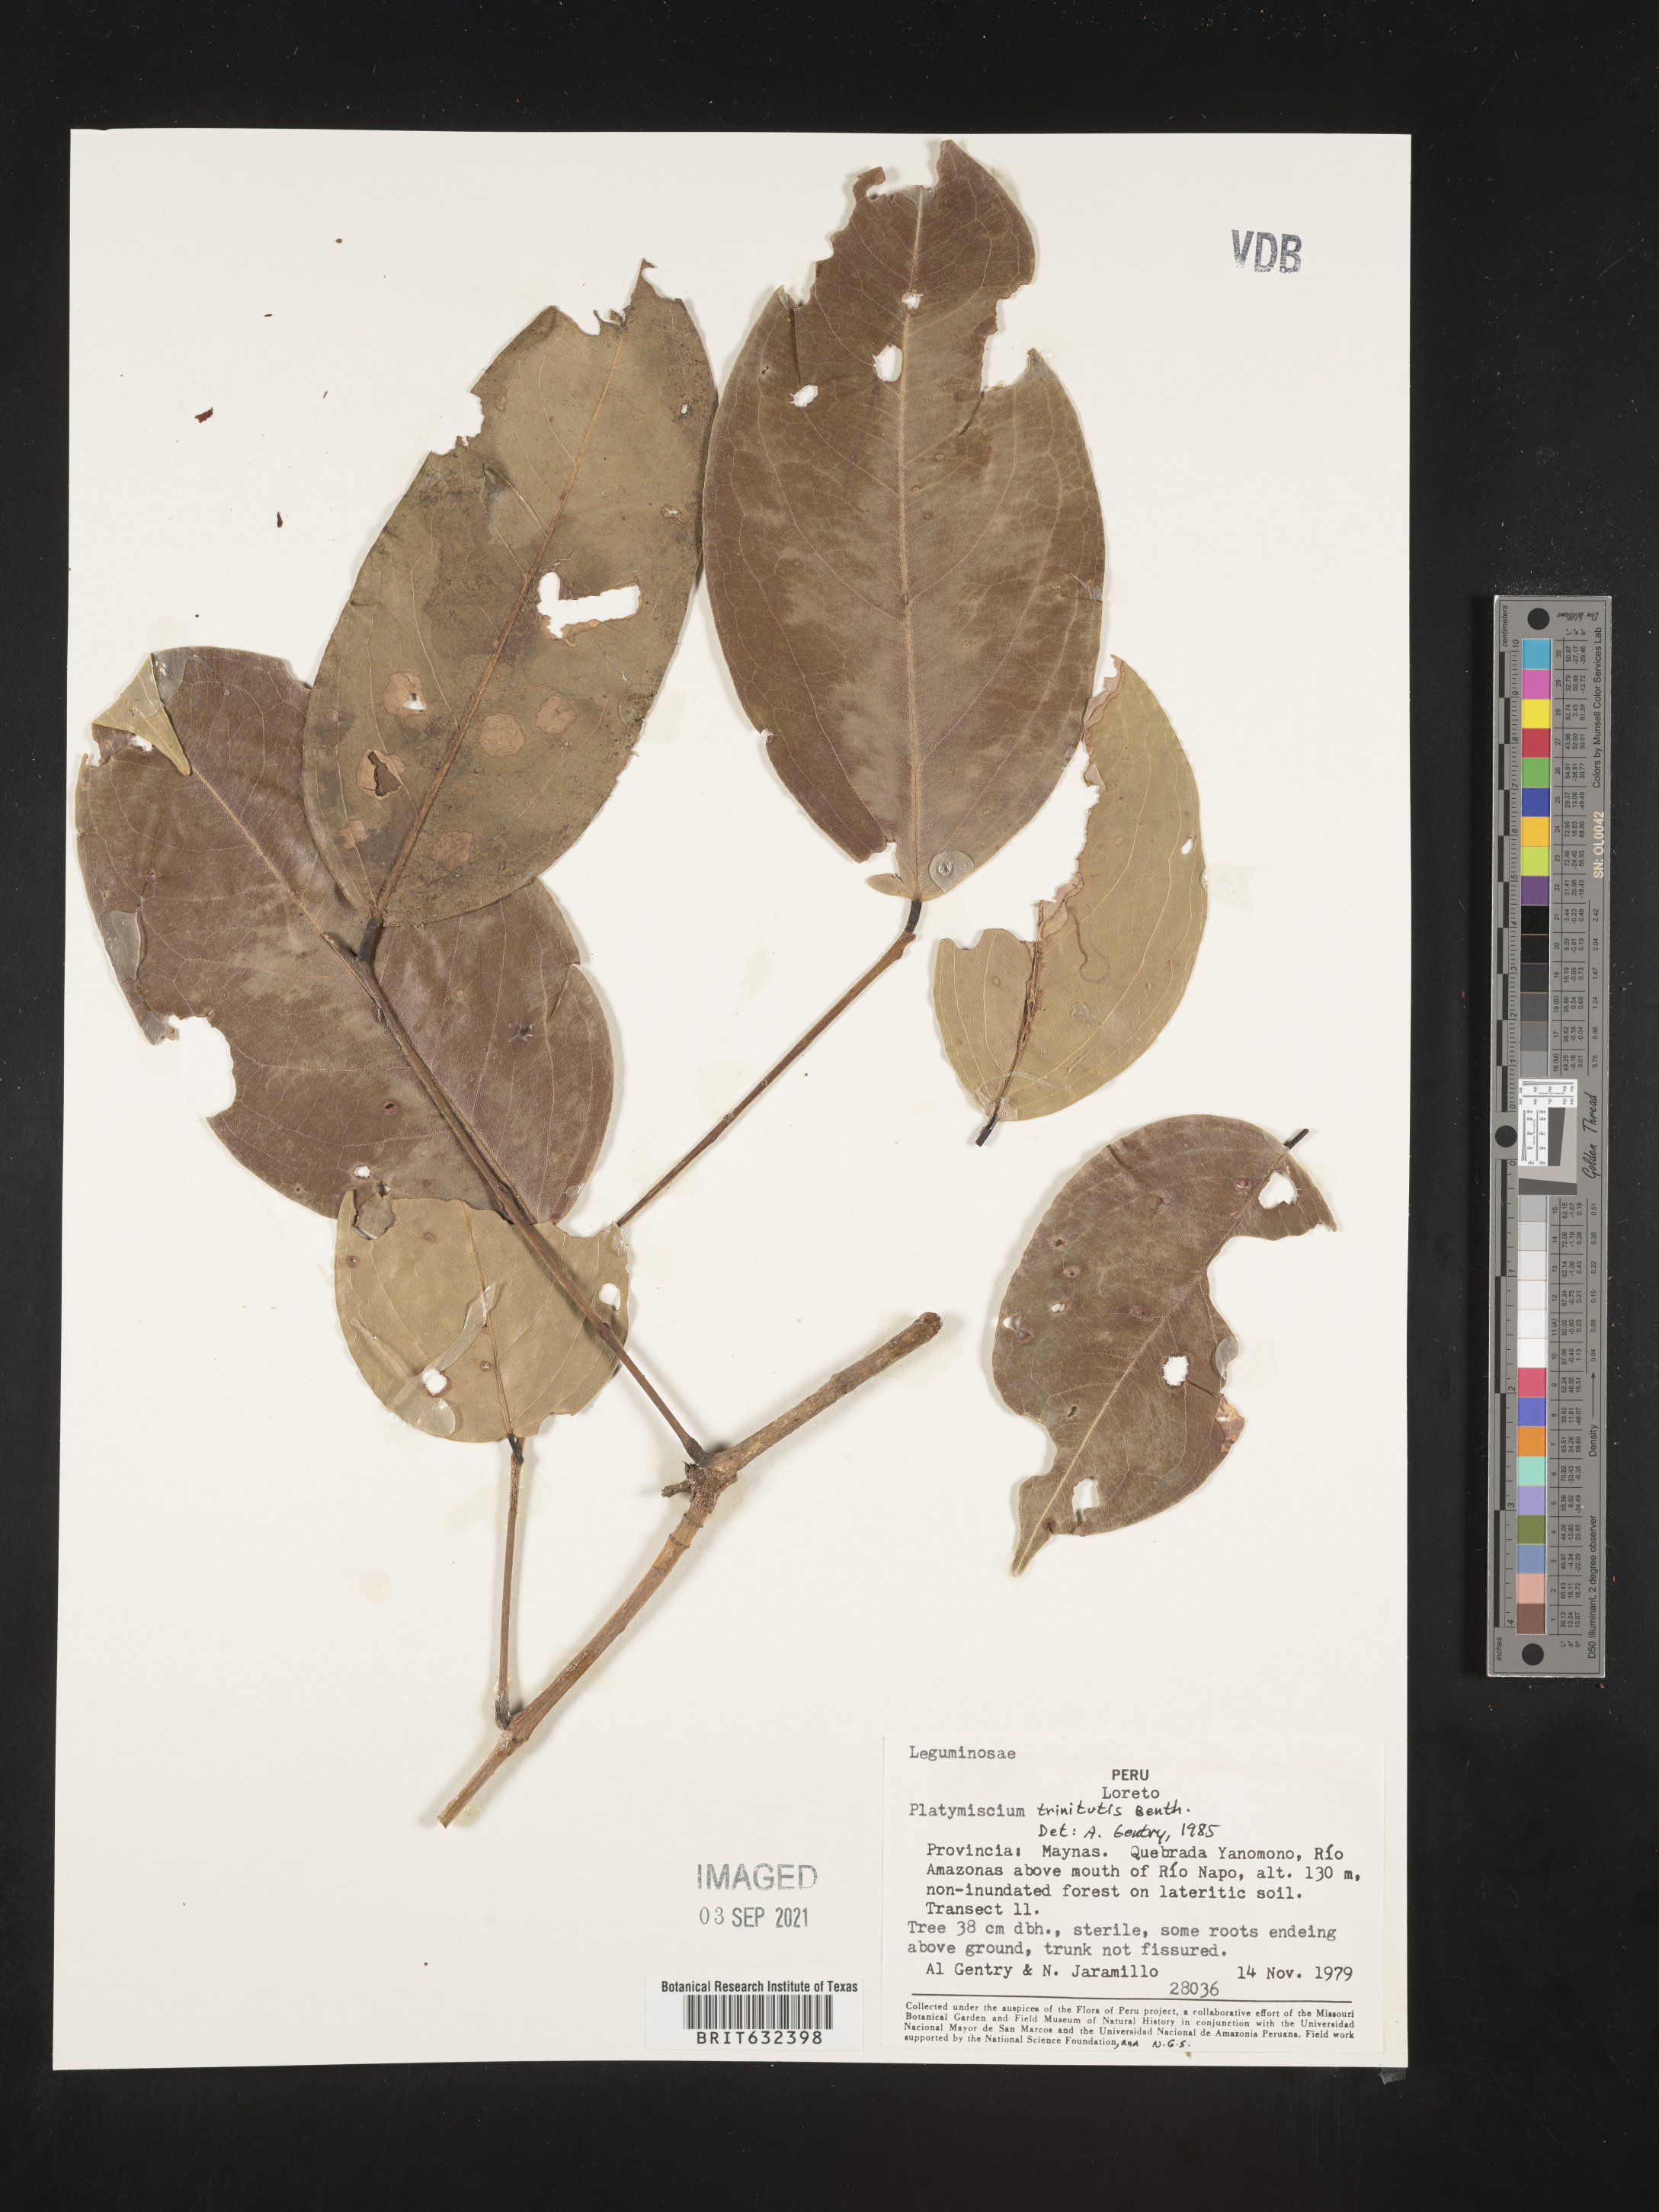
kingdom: Plantae
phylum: Tracheophyta
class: Magnoliopsida
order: Fabales
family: Fabaceae
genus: Platymiscium
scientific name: Platymiscium
